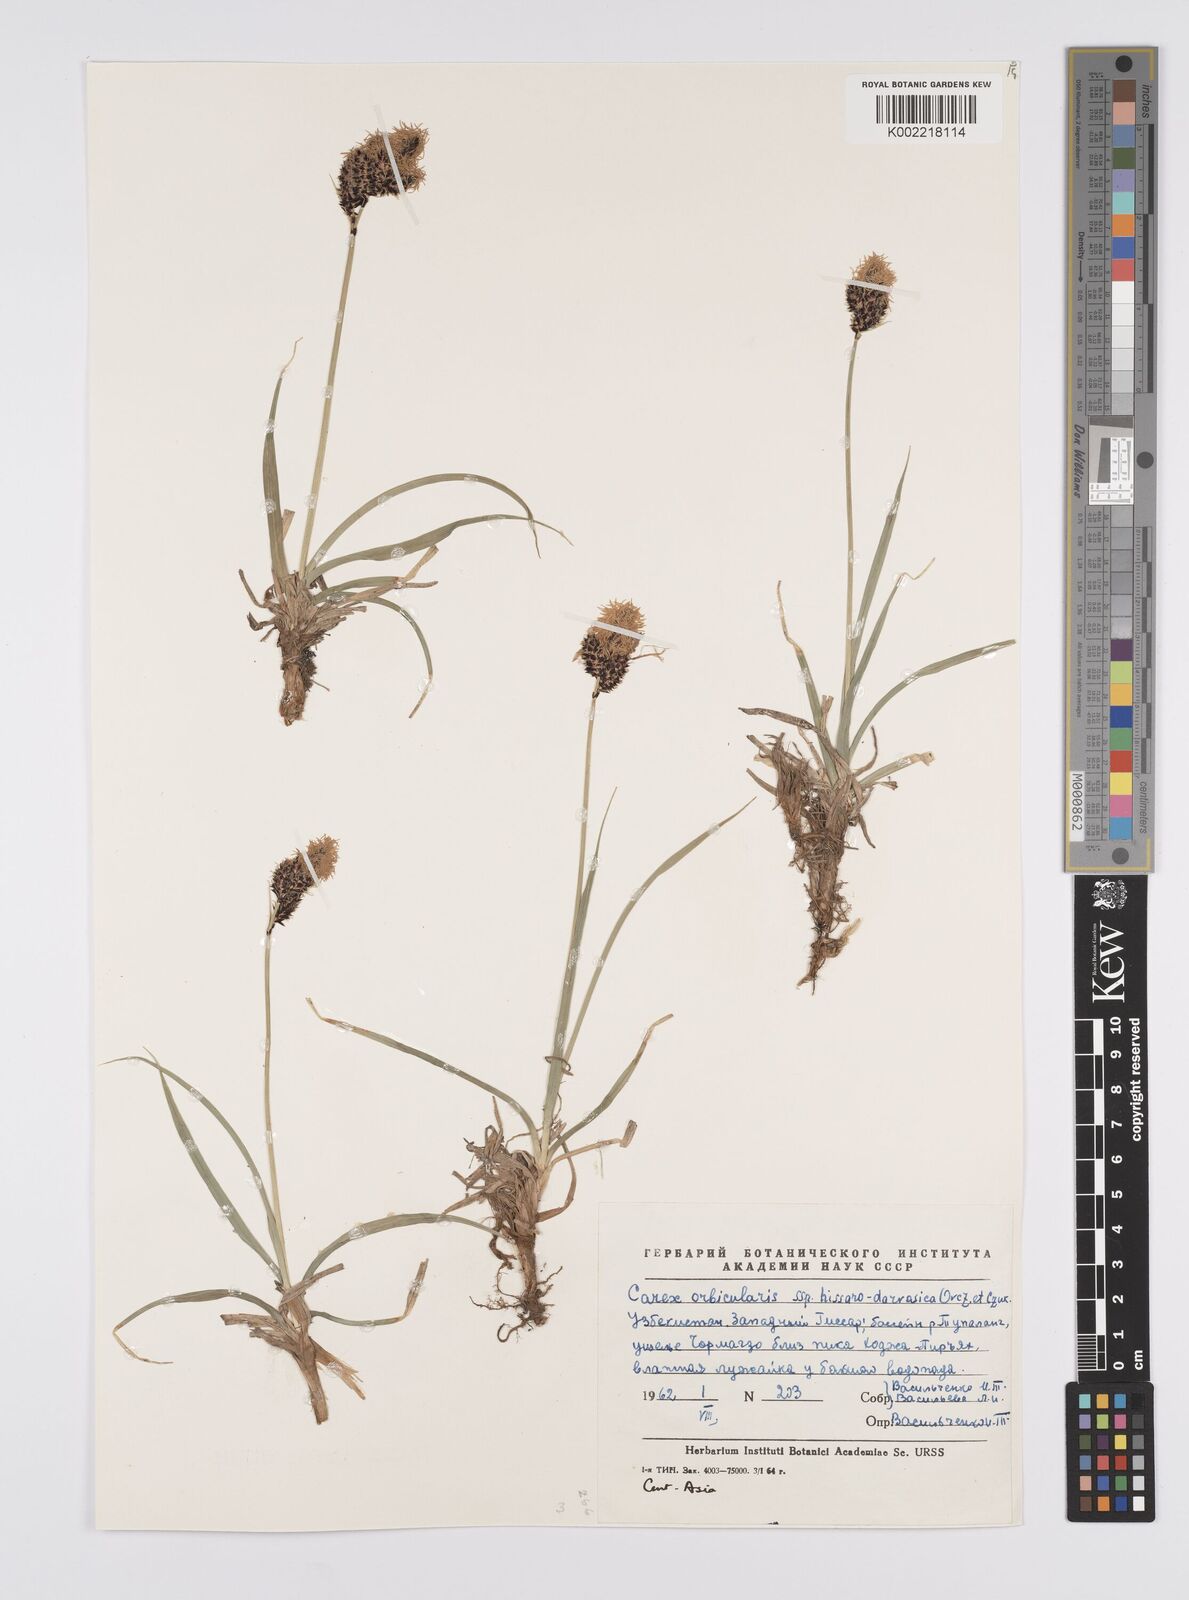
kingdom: Plantae
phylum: Tracheophyta
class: Liliopsida
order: Poales
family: Cyperaceae
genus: Carex
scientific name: Carex orbicularis
